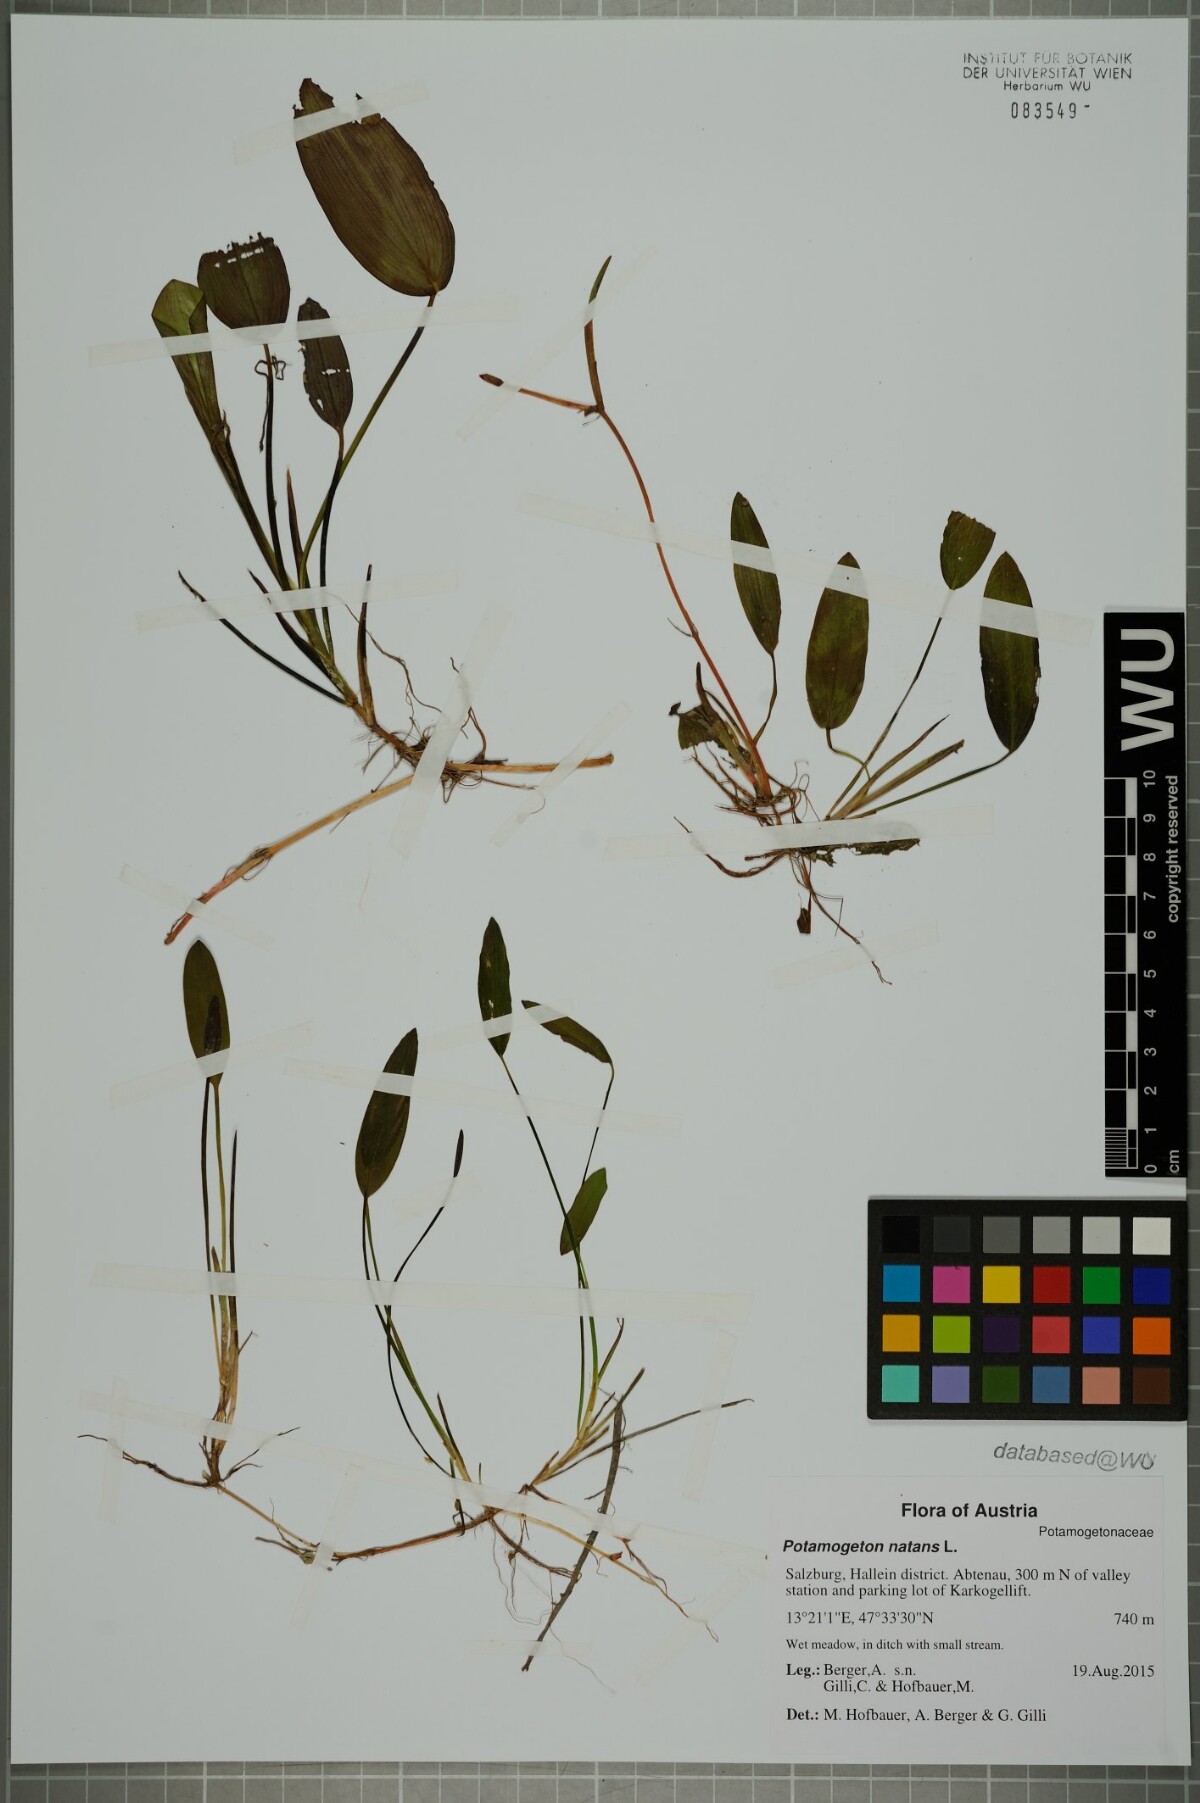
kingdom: Plantae
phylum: Tracheophyta
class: Liliopsida
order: Alismatales
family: Potamogetonaceae
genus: Potamogeton
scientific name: Potamogeton natans
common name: Broad-leaved pondweed
